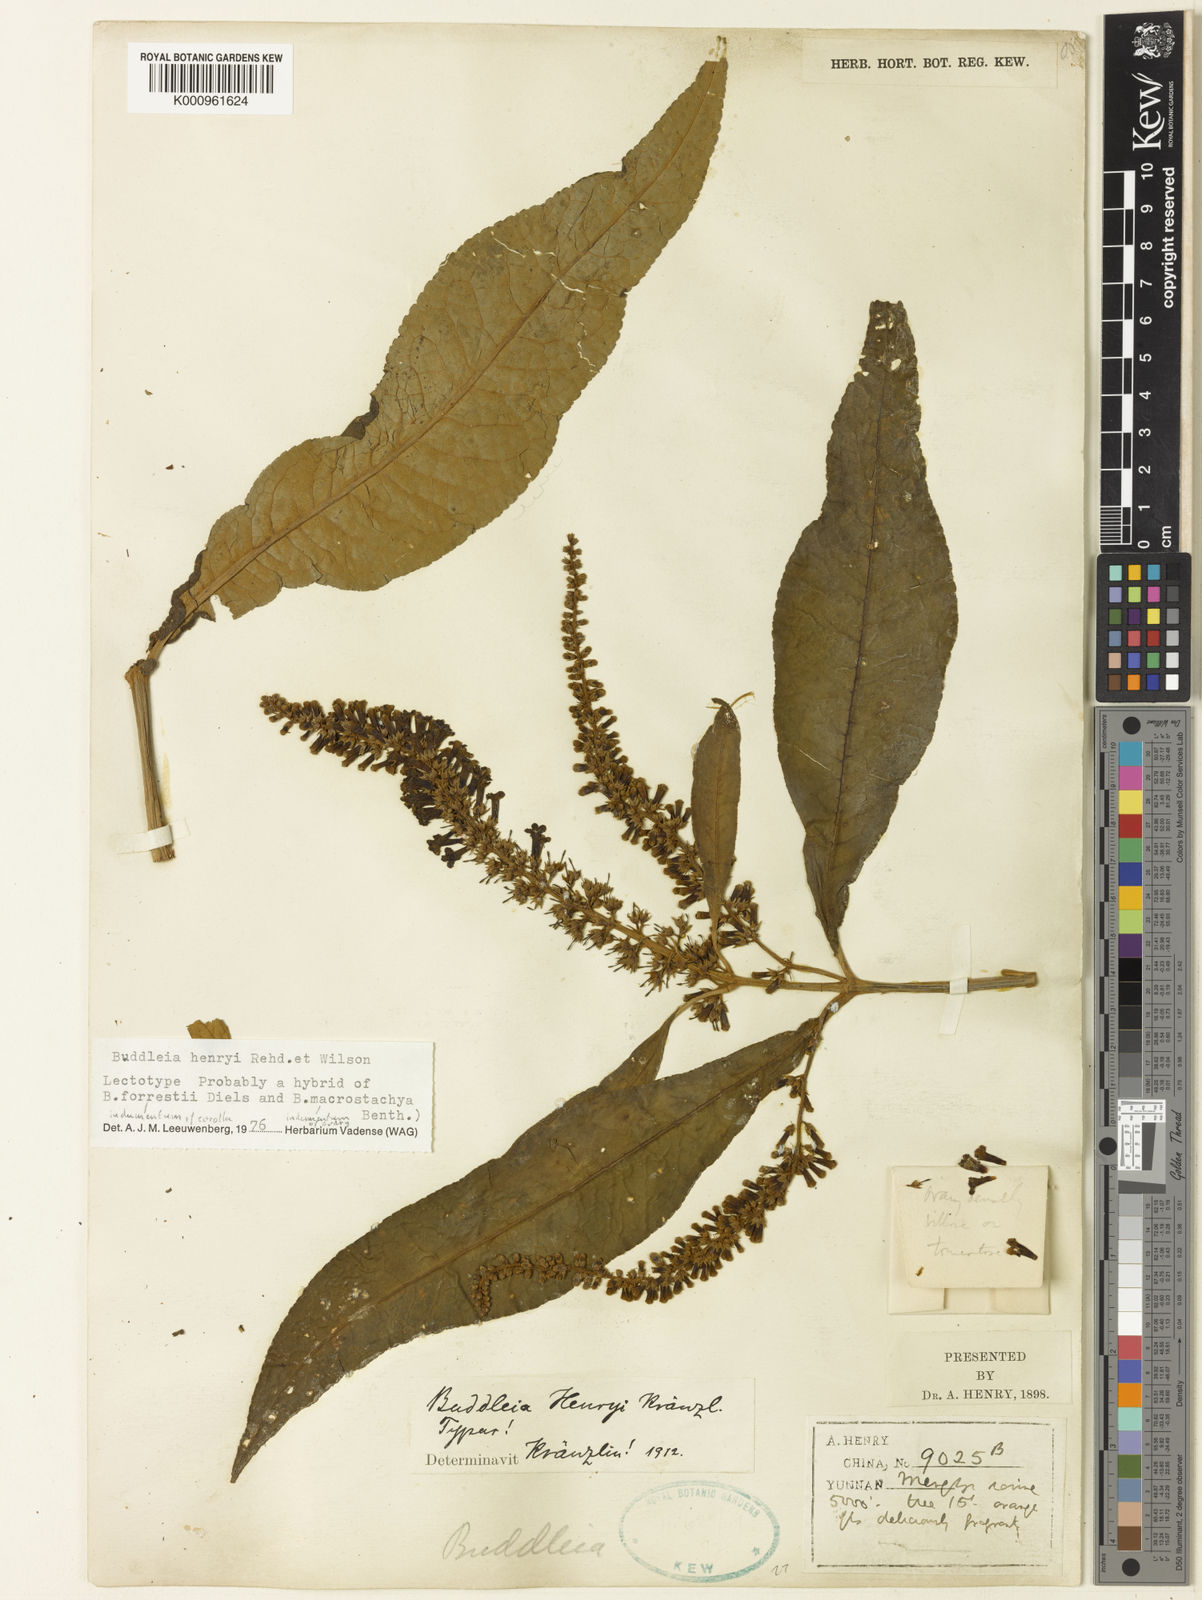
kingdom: Plantae
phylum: Tracheophyta
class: Magnoliopsida
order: Lamiales
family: Scrophulariaceae
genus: Buddleja
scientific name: Buddleja forrestii
